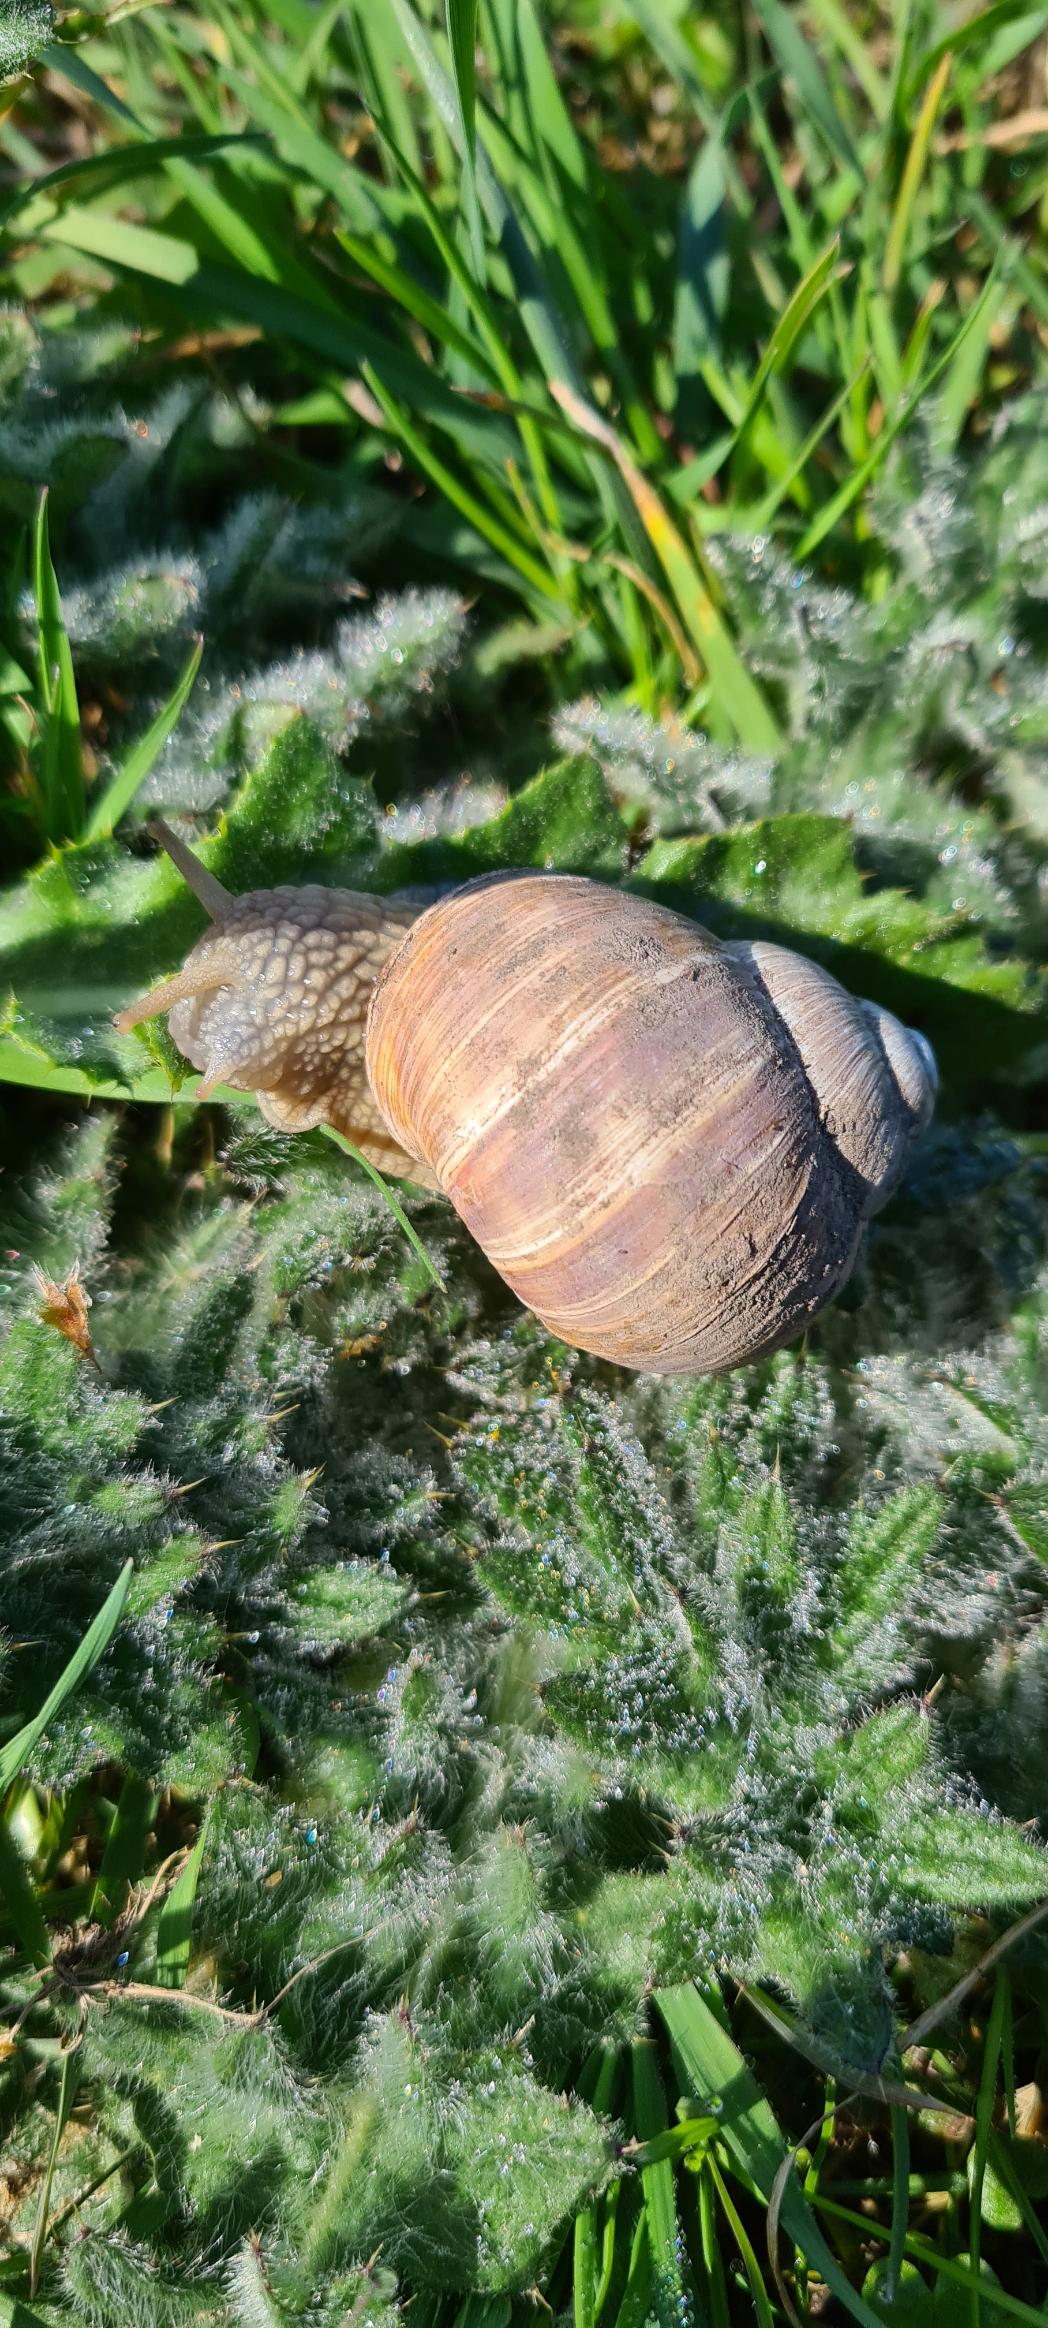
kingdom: Animalia
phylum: Mollusca
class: Gastropoda
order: Stylommatophora
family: Helicidae
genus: Helix
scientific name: Helix pomatia
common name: Vinbjergsnegl
